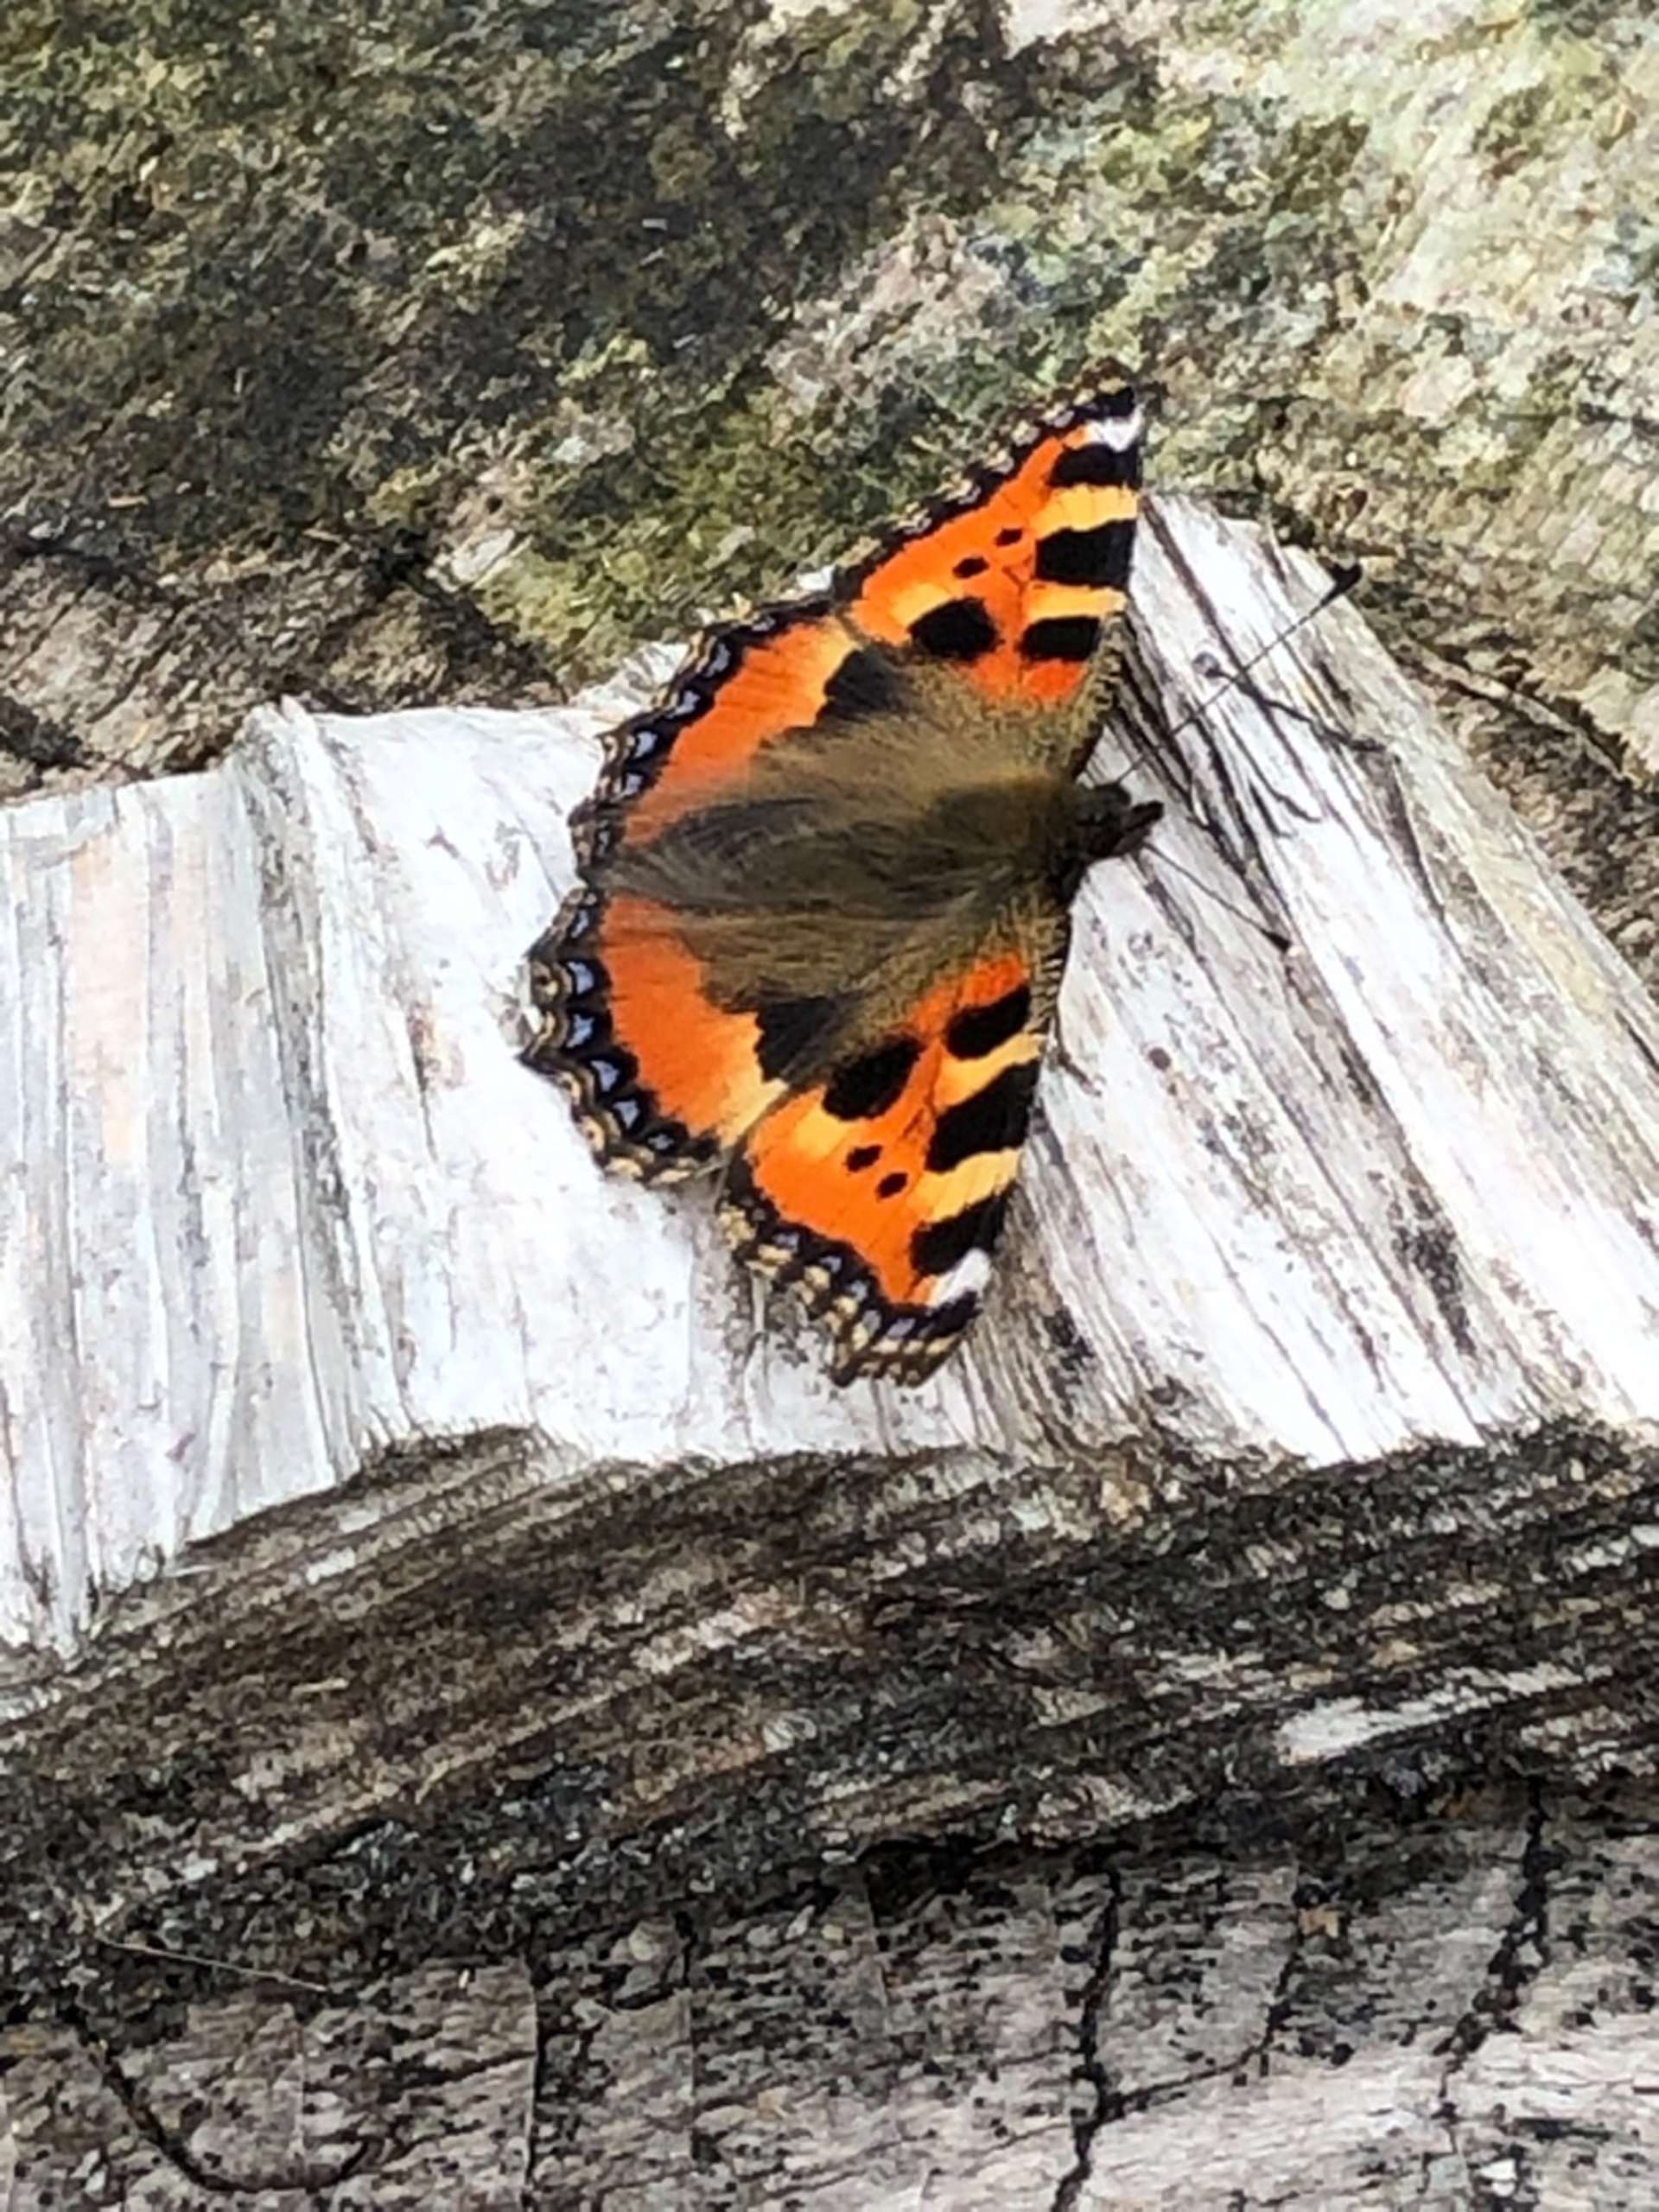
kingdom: Animalia
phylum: Arthropoda
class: Insecta
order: Lepidoptera
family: Nymphalidae
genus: Aglais
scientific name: Aglais urticae
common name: Nældens takvinge
